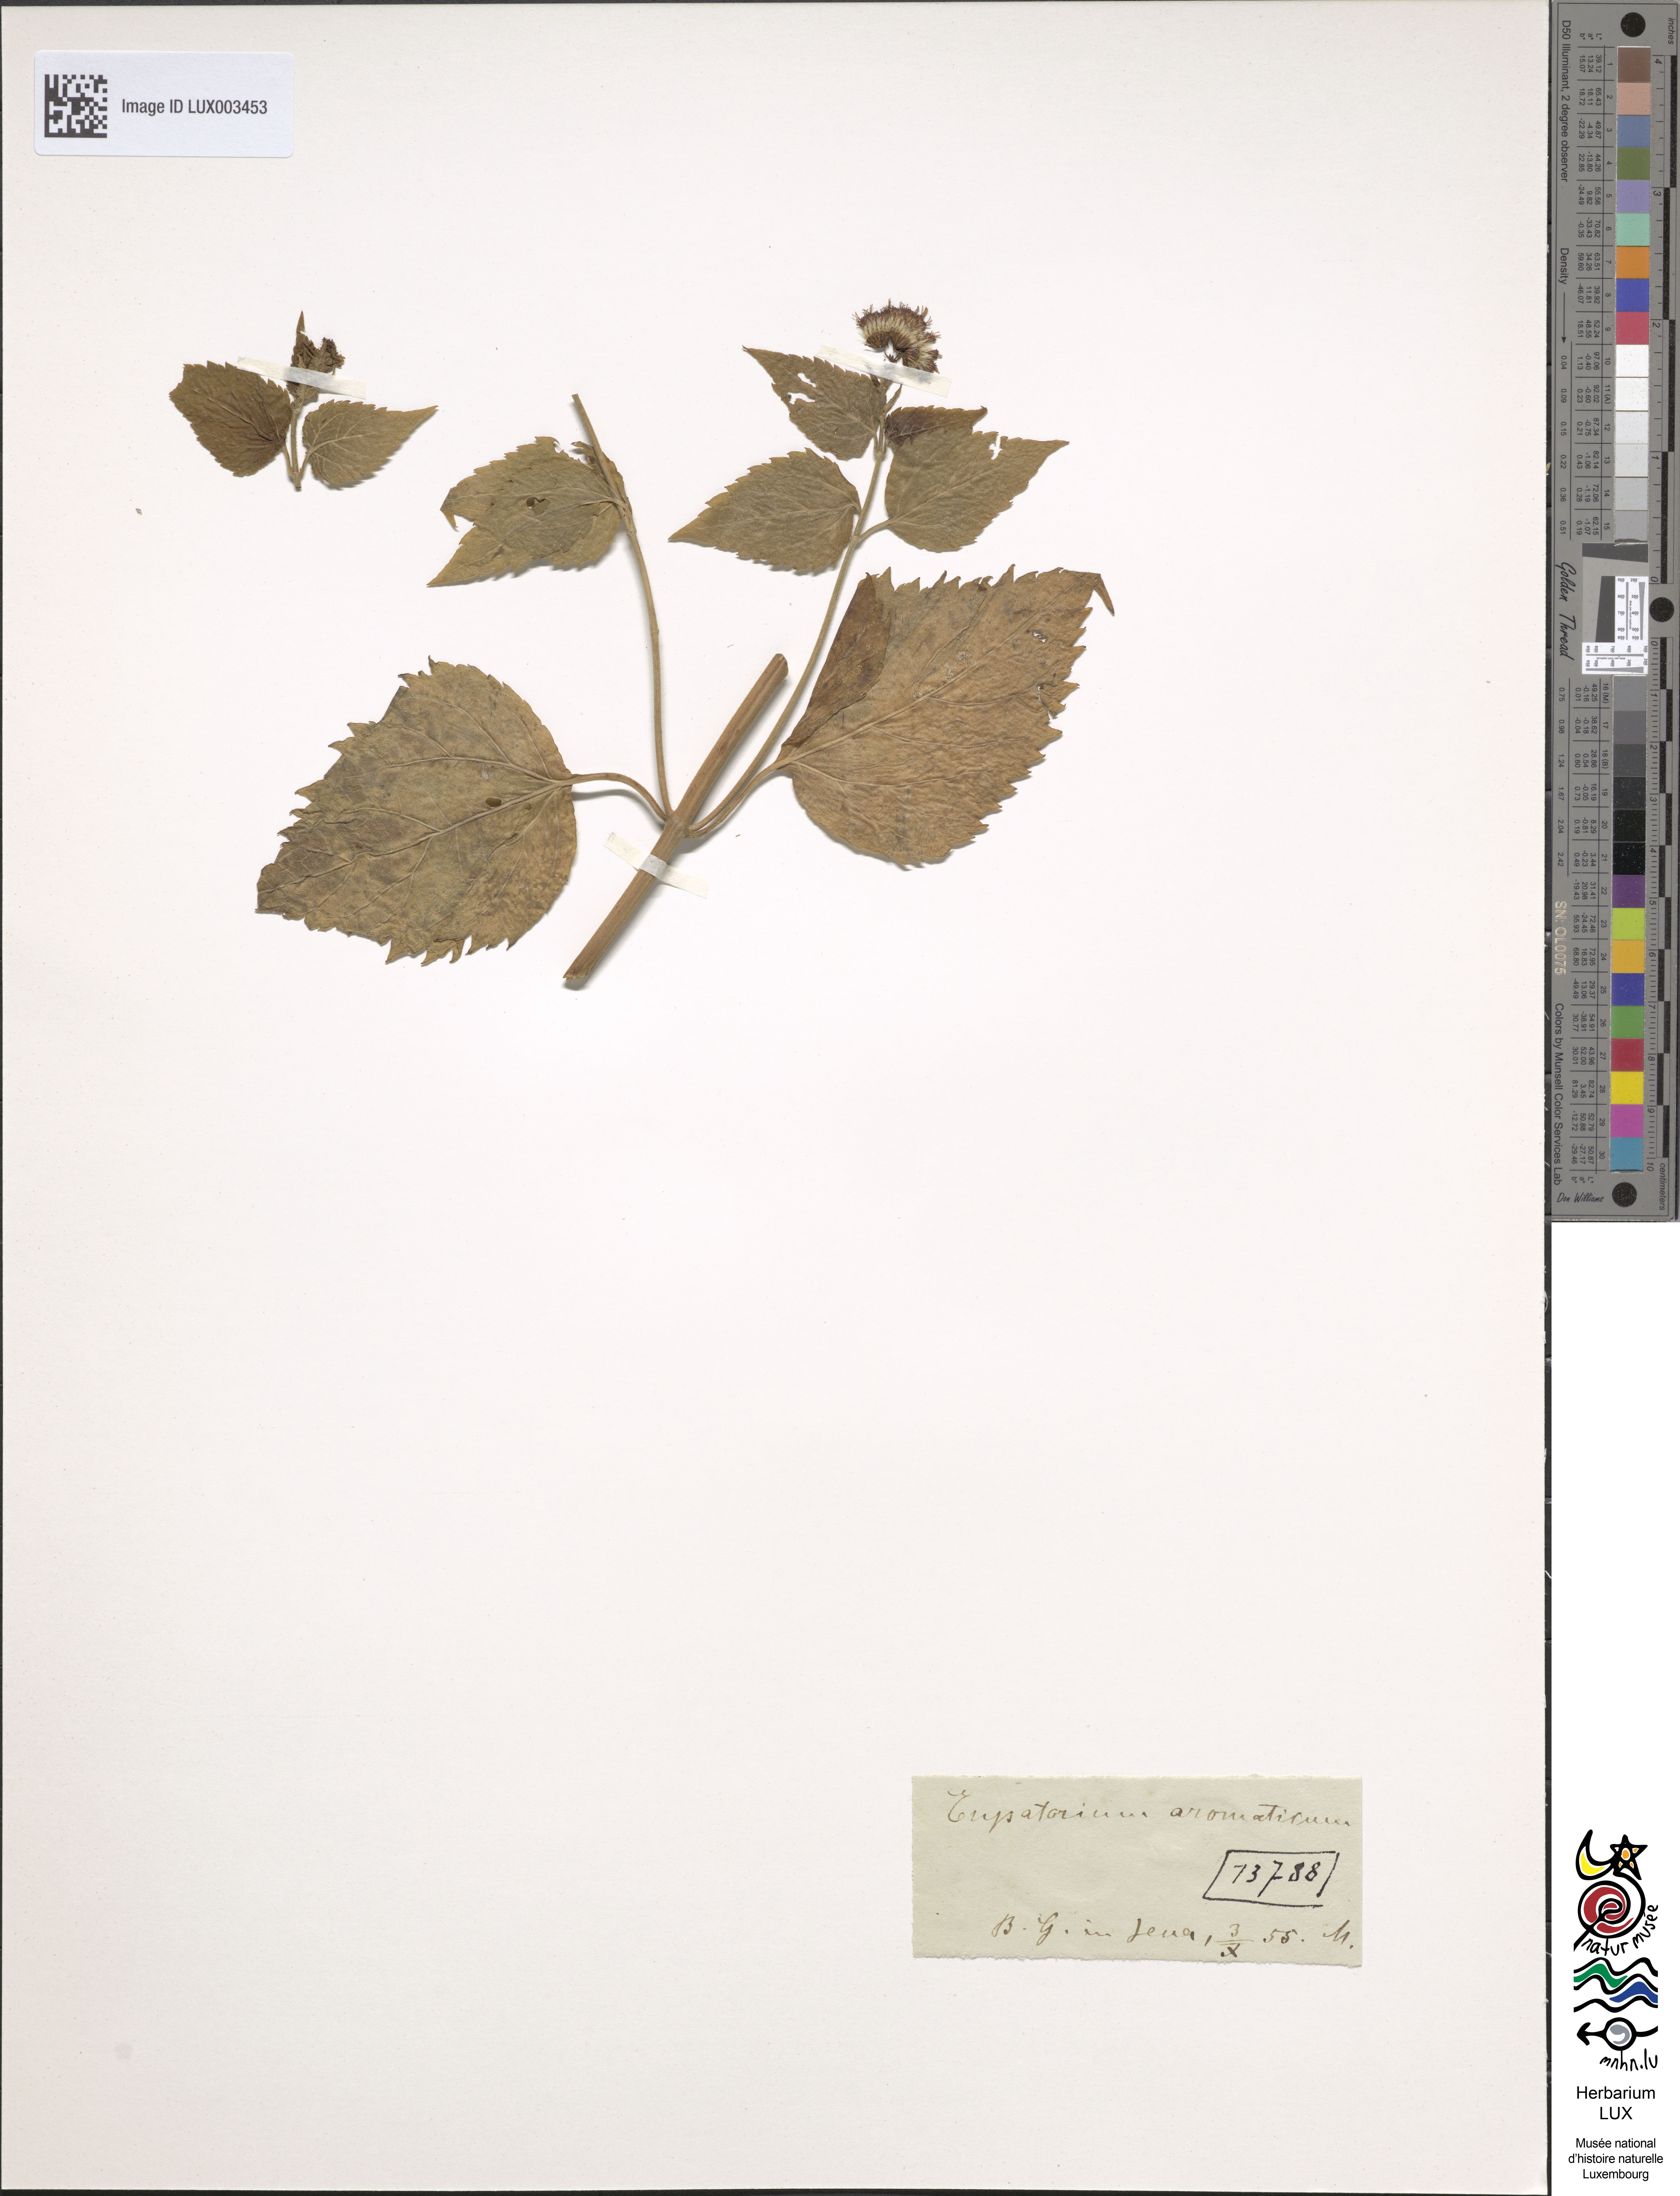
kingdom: Plantae
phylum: Tracheophyta
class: Magnoliopsida
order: Asterales
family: Asteraceae
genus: Ageratina
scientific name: Ageratina aromatica
